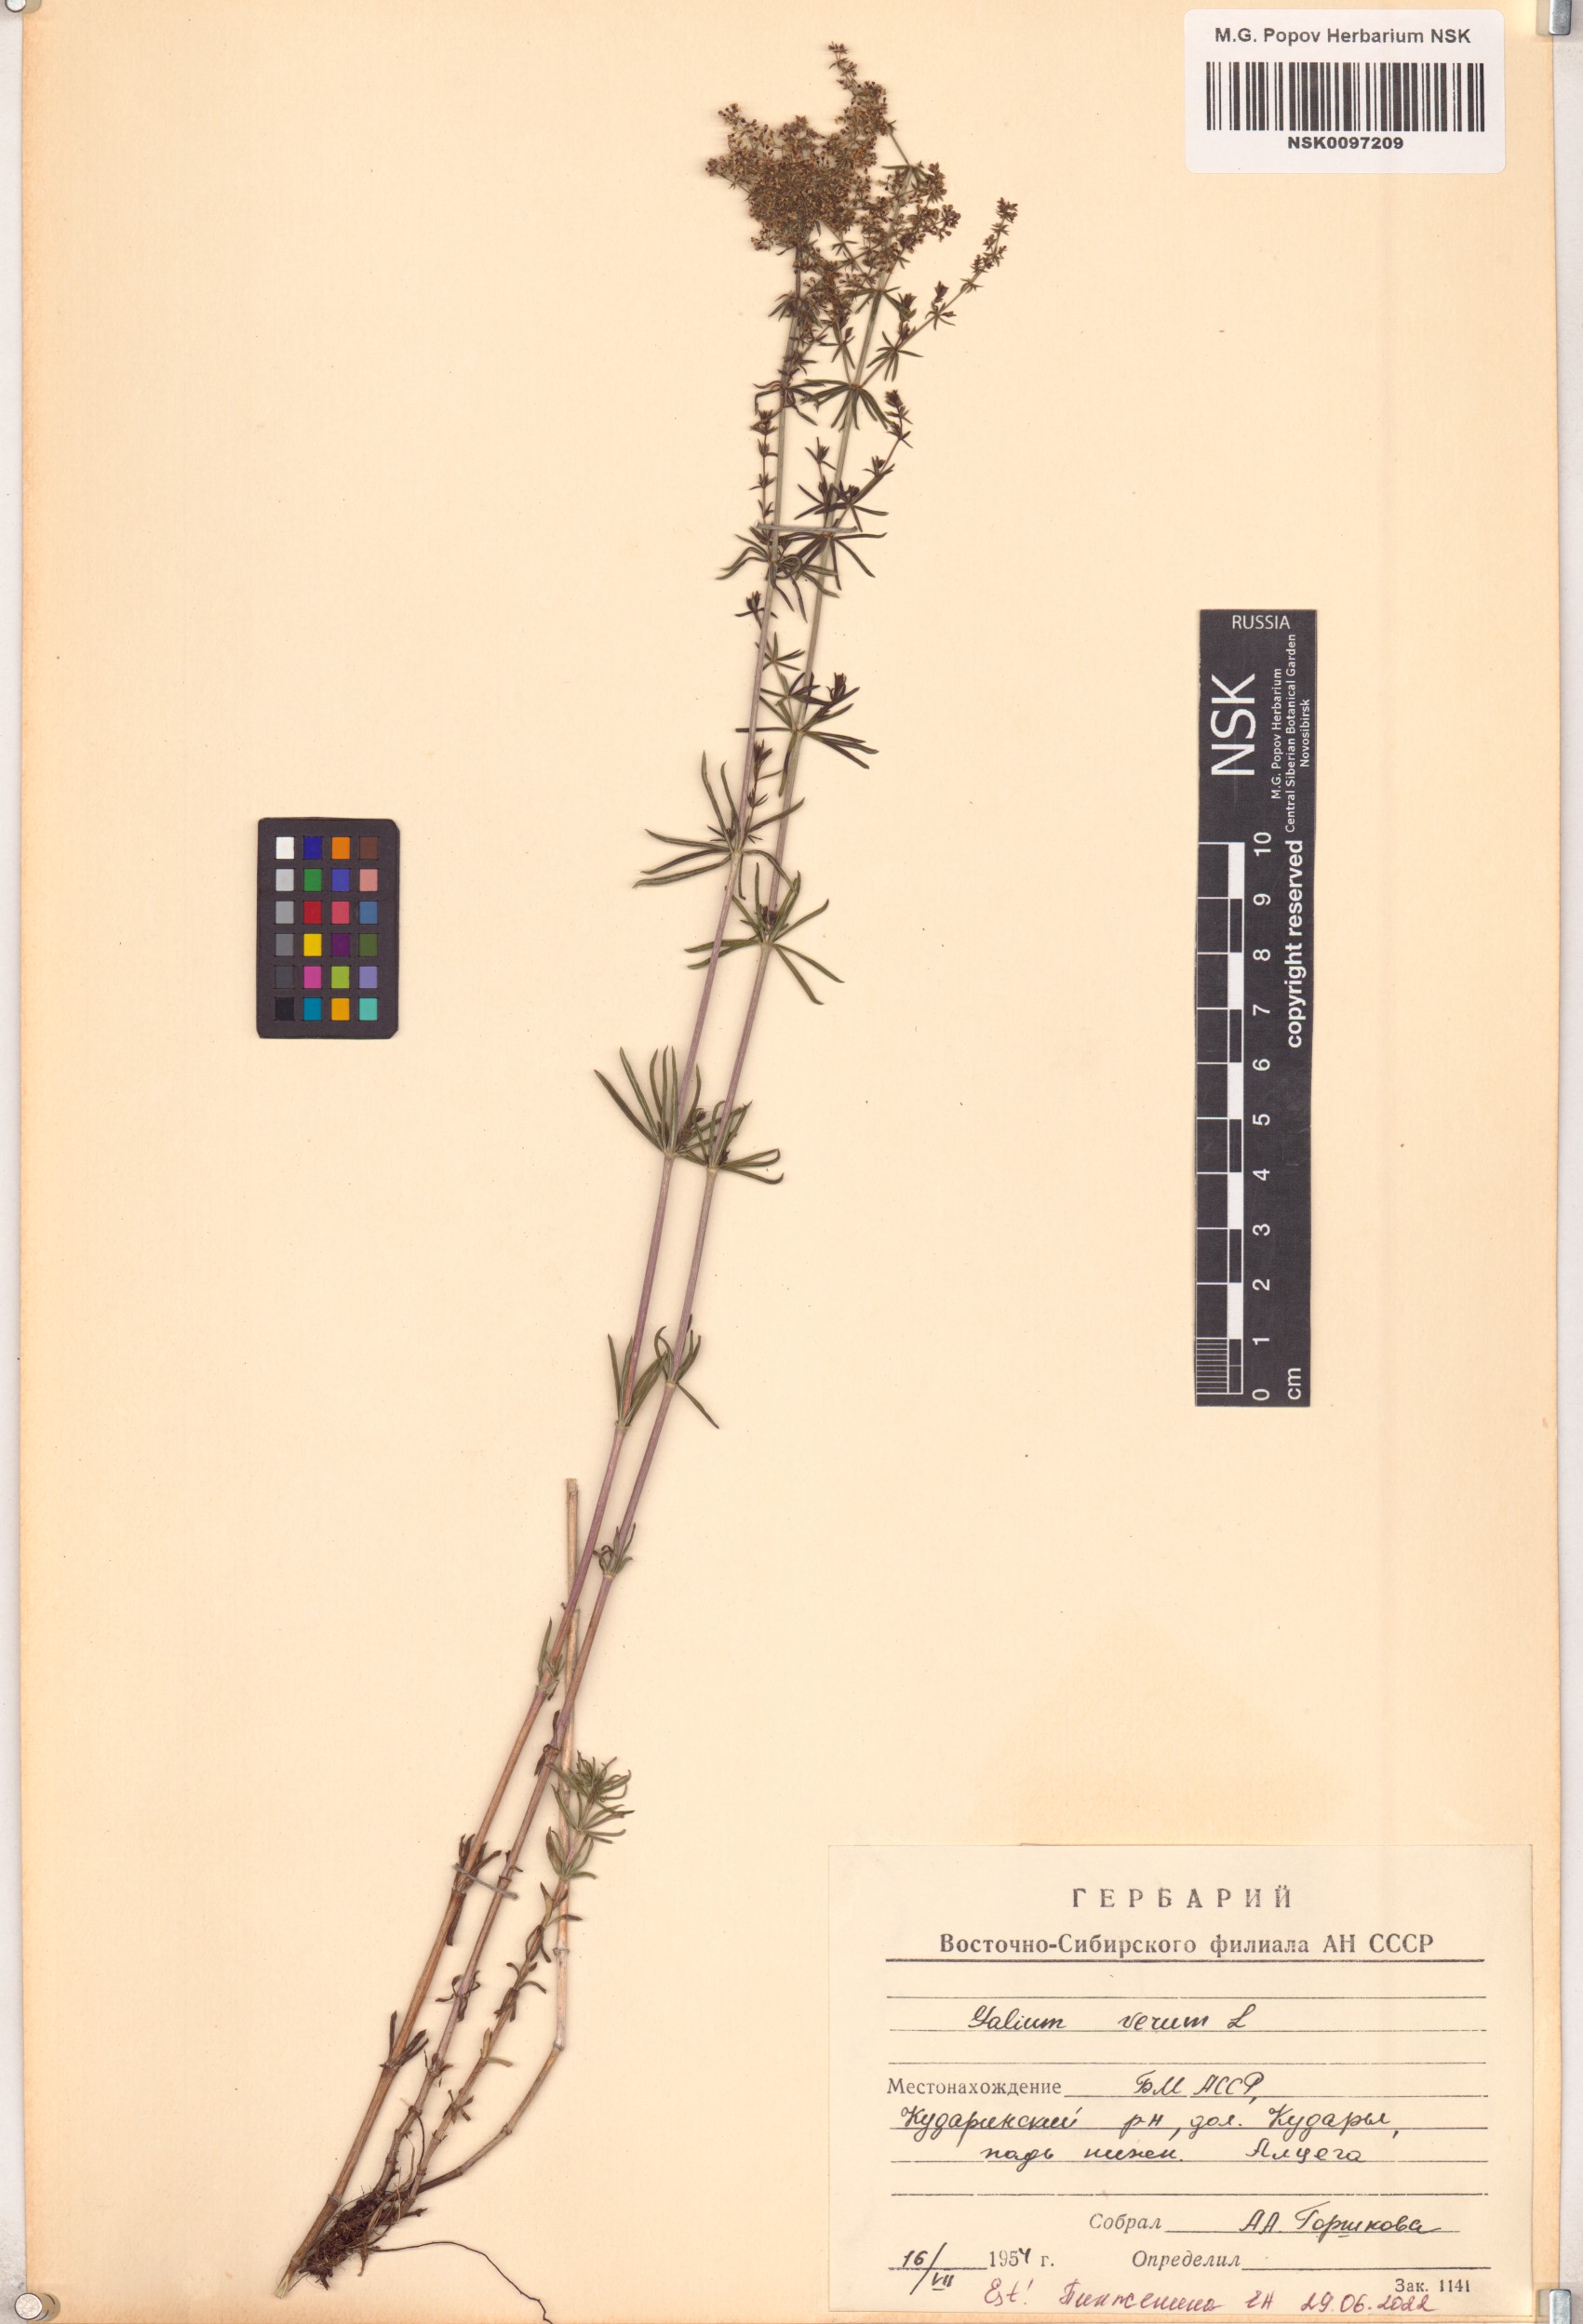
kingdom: Plantae
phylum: Tracheophyta
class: Magnoliopsida
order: Gentianales
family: Rubiaceae
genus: Galium
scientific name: Galium verum
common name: Lady's bedstraw
